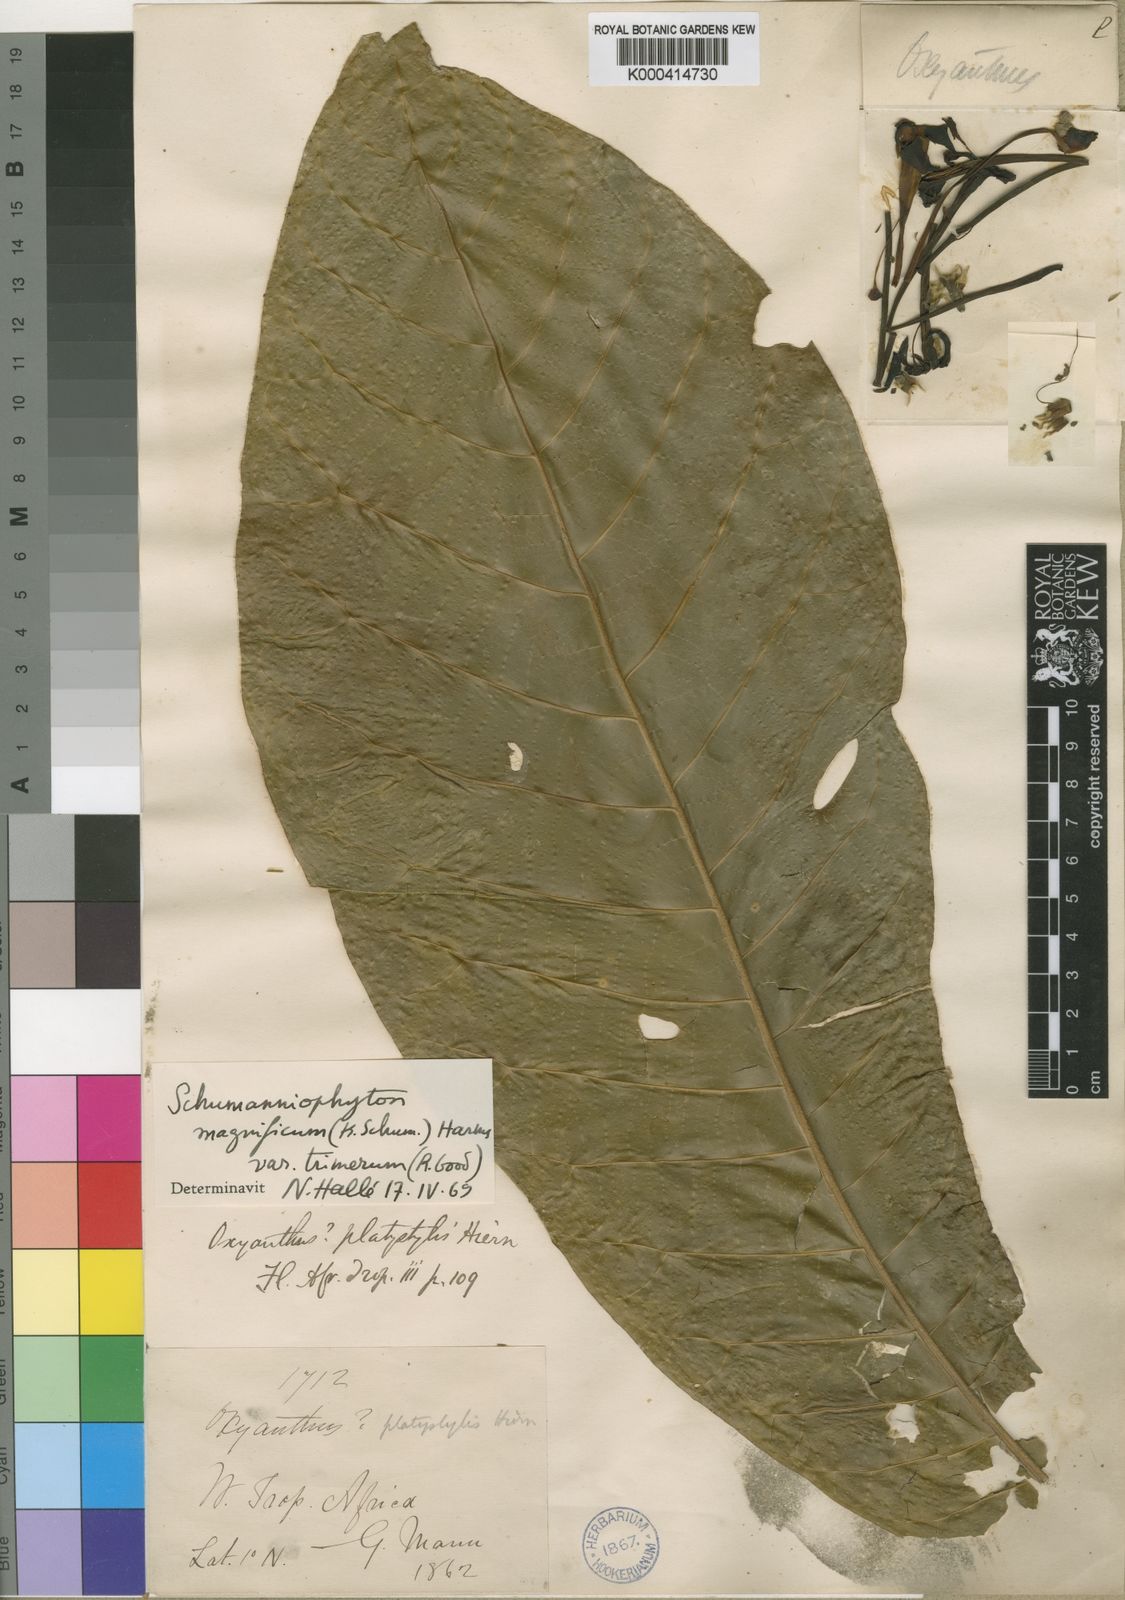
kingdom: Plantae
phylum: Tracheophyta
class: Magnoliopsida
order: Gentianales
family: Rubiaceae
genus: Schumanniophyton
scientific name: Schumanniophyton magnificum
